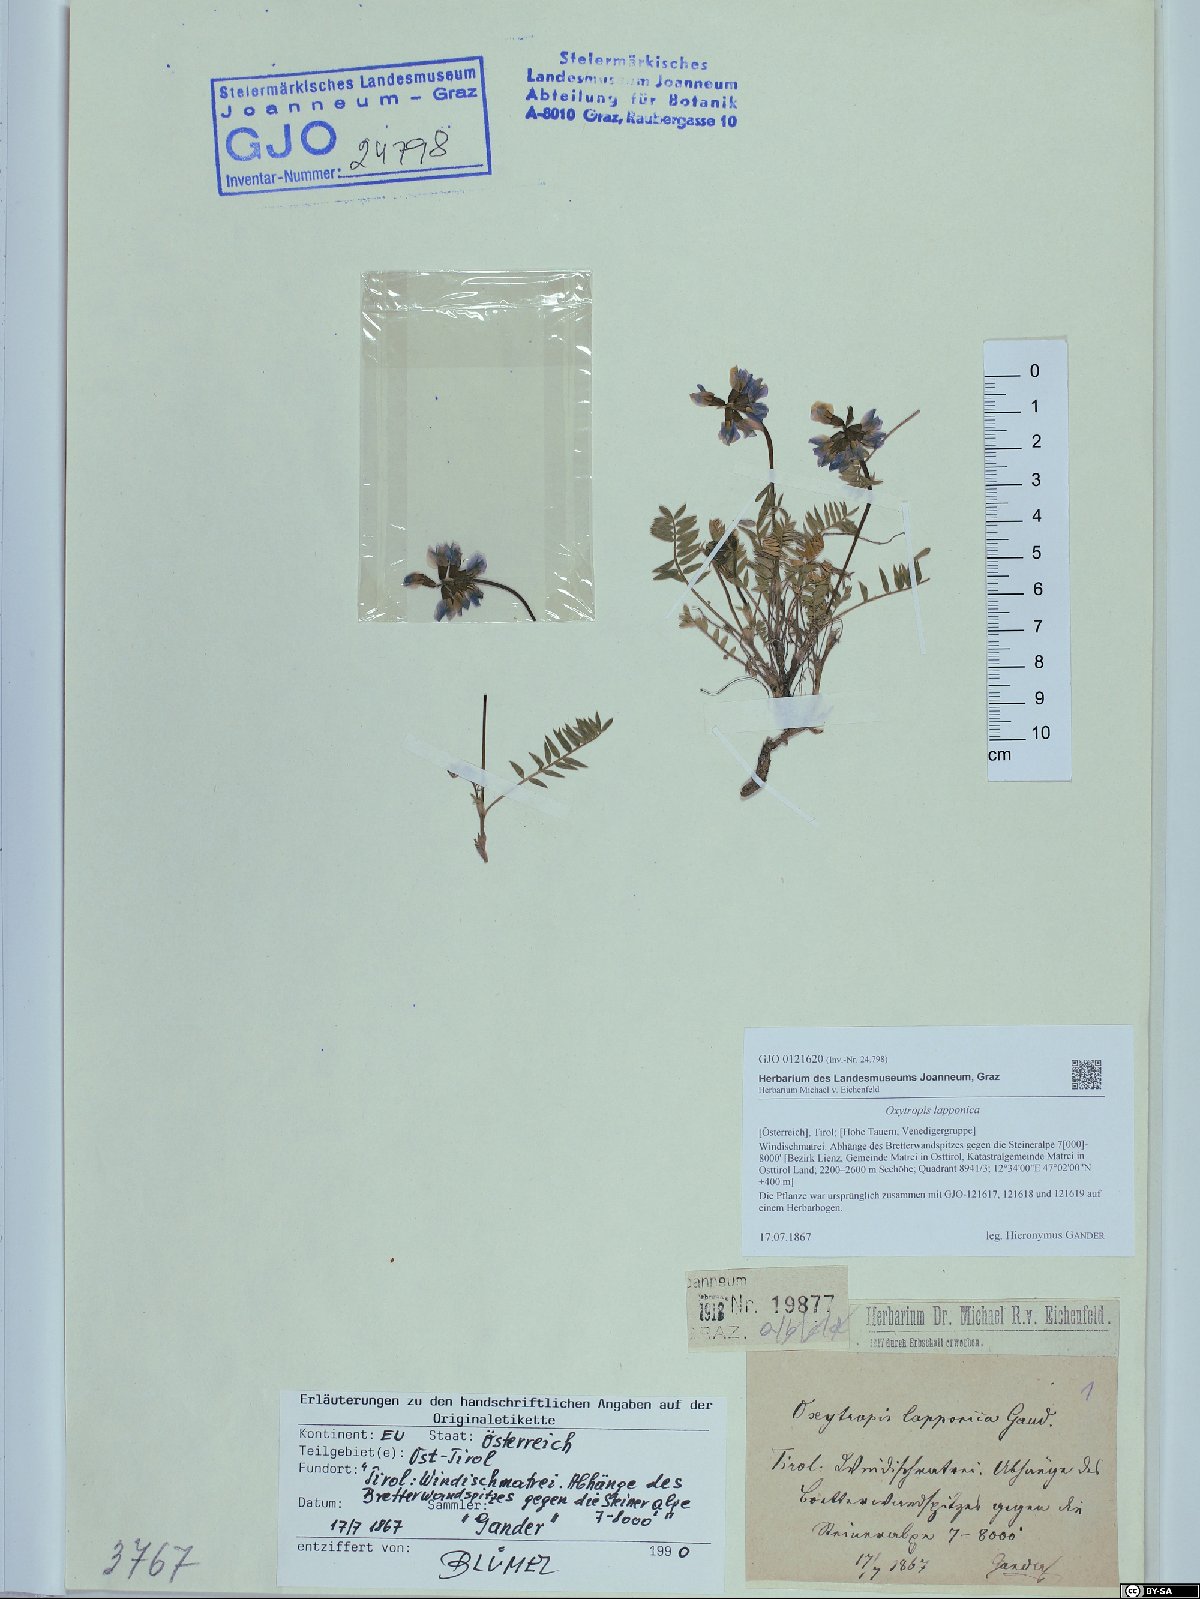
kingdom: Plantae
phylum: Tracheophyta
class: Magnoliopsida
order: Fabales
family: Fabaceae
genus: Oxytropis
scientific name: Oxytropis lapponica
